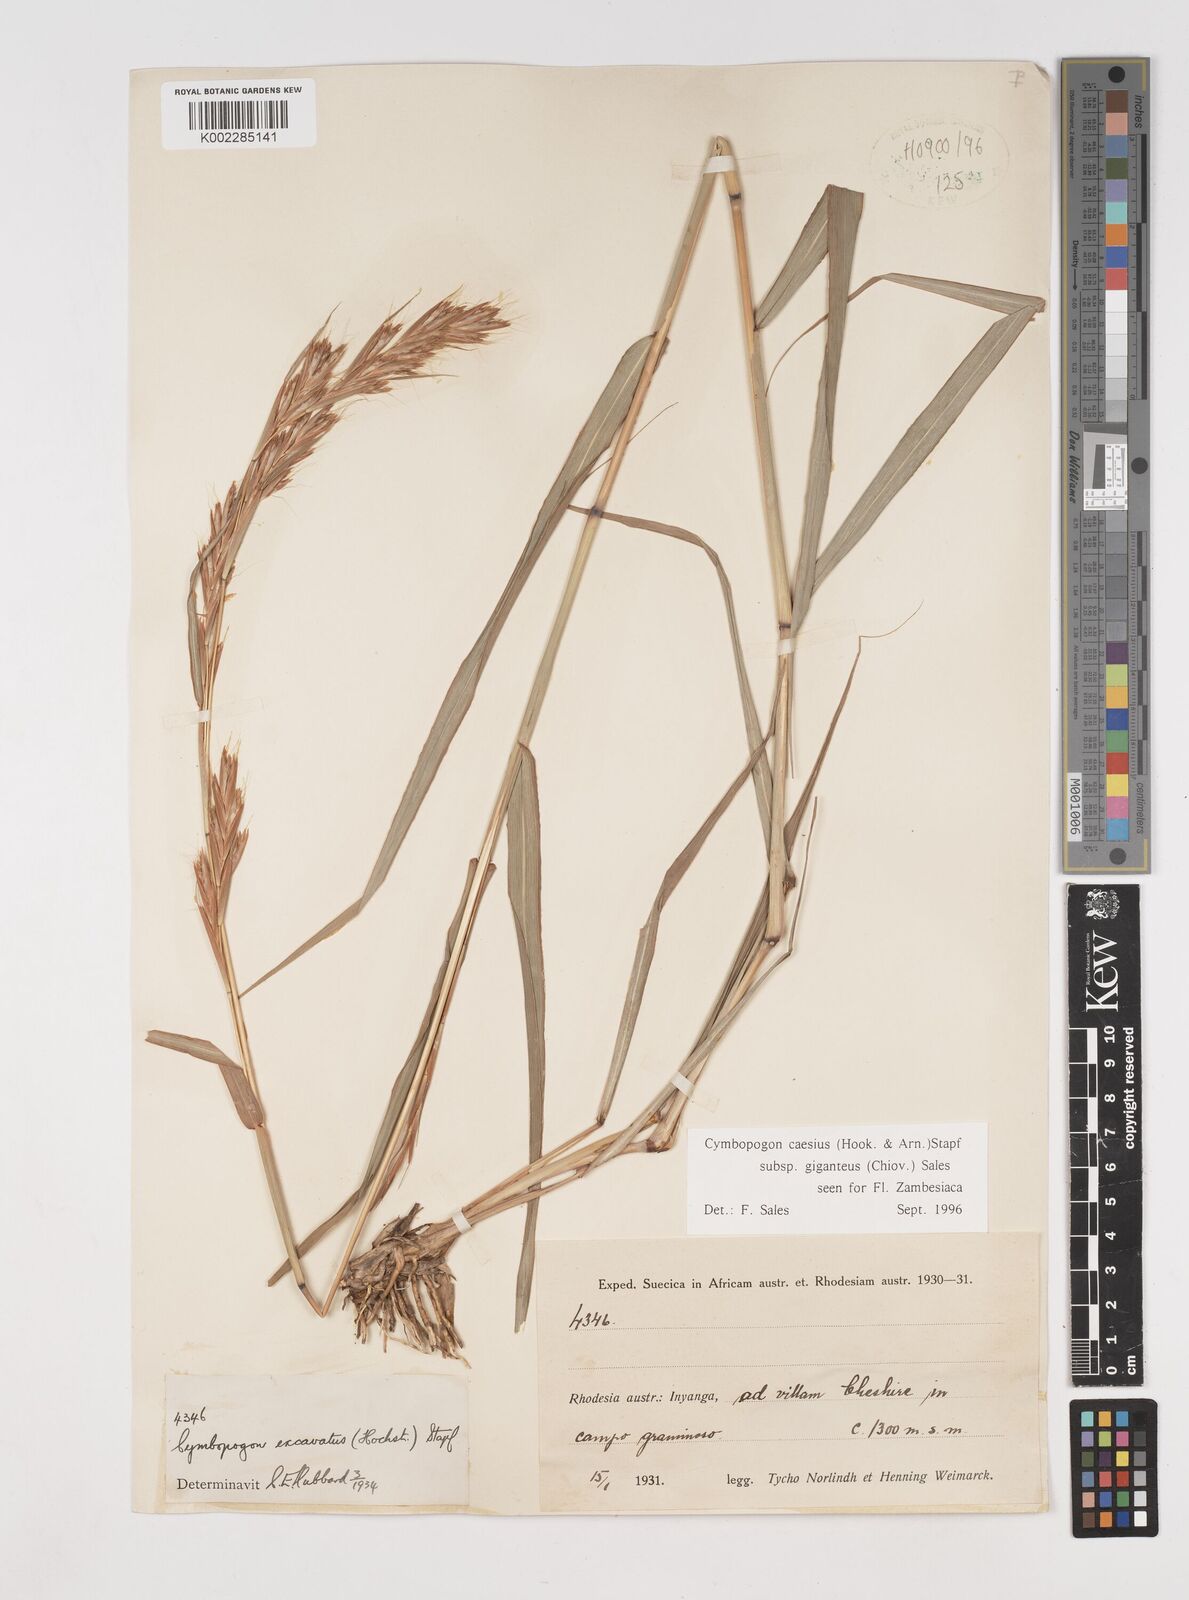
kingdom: Plantae
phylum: Tracheophyta
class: Liliopsida
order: Poales
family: Poaceae
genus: Cymbopogon
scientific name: Cymbopogon giganteus
